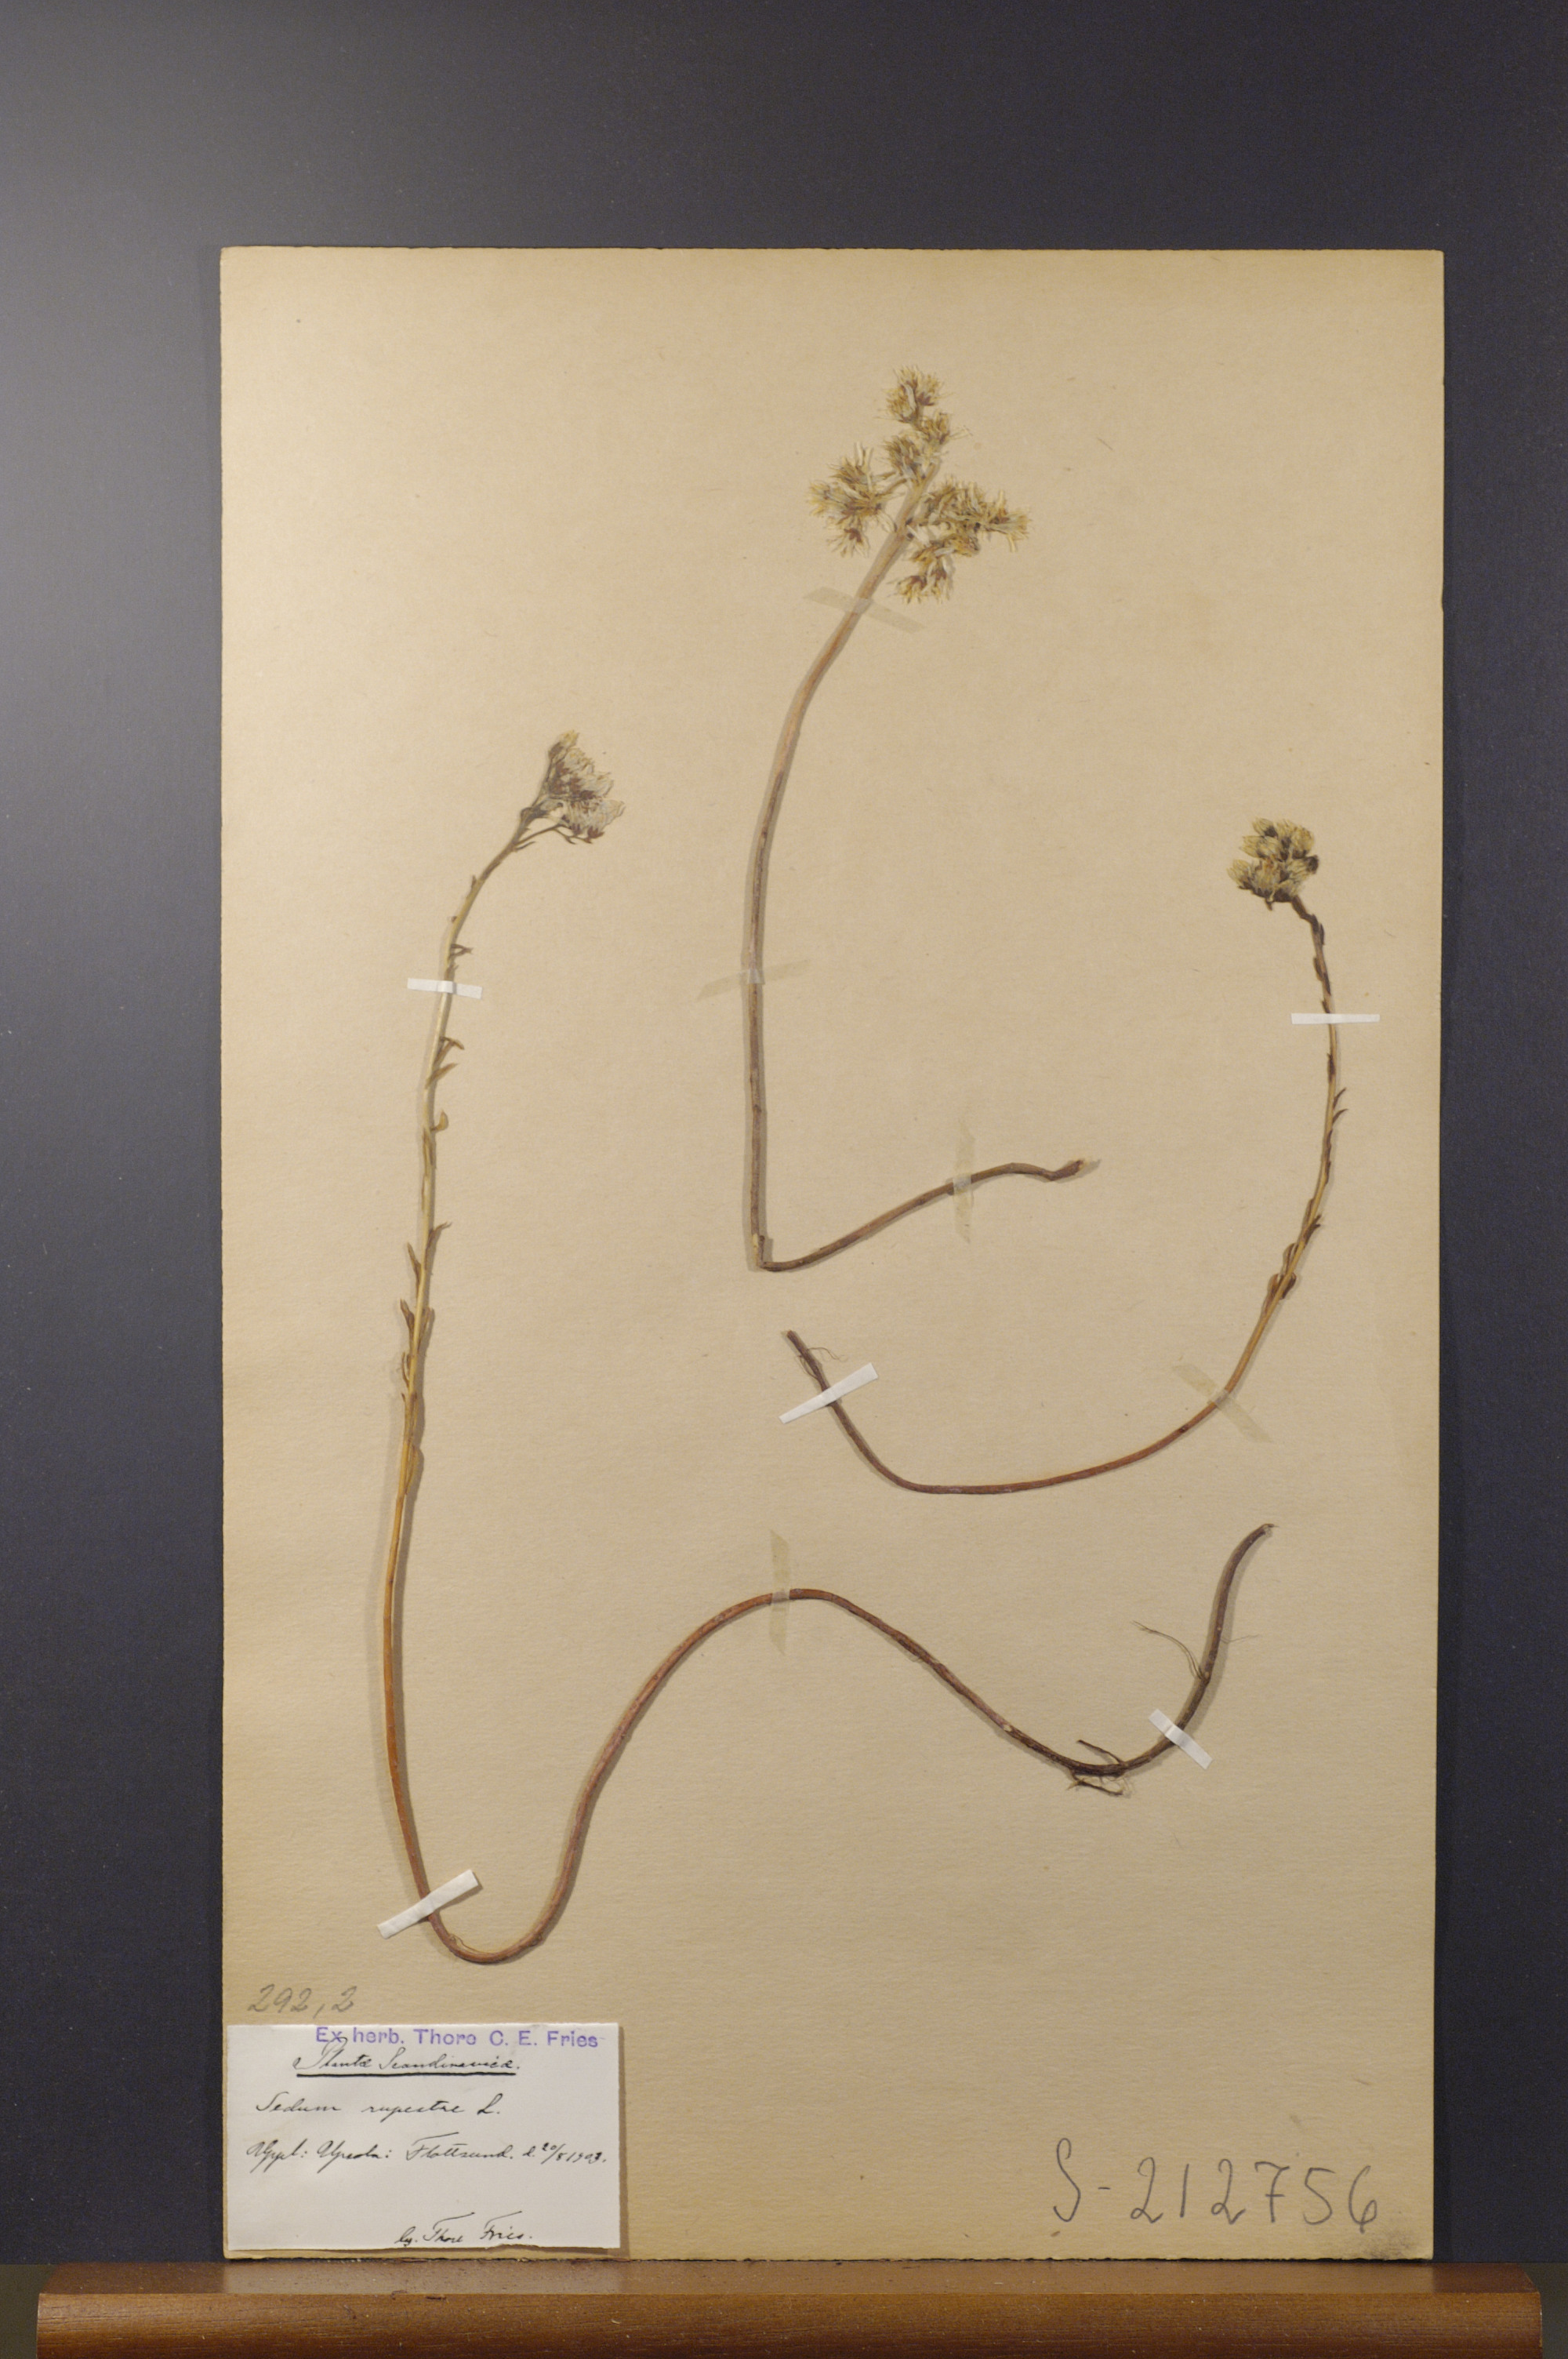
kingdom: Plantae
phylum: Tracheophyta
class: Magnoliopsida
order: Saxifragales
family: Crassulaceae
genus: Petrosedum
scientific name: Petrosedum rupestre
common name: Jenny's stonecrop
